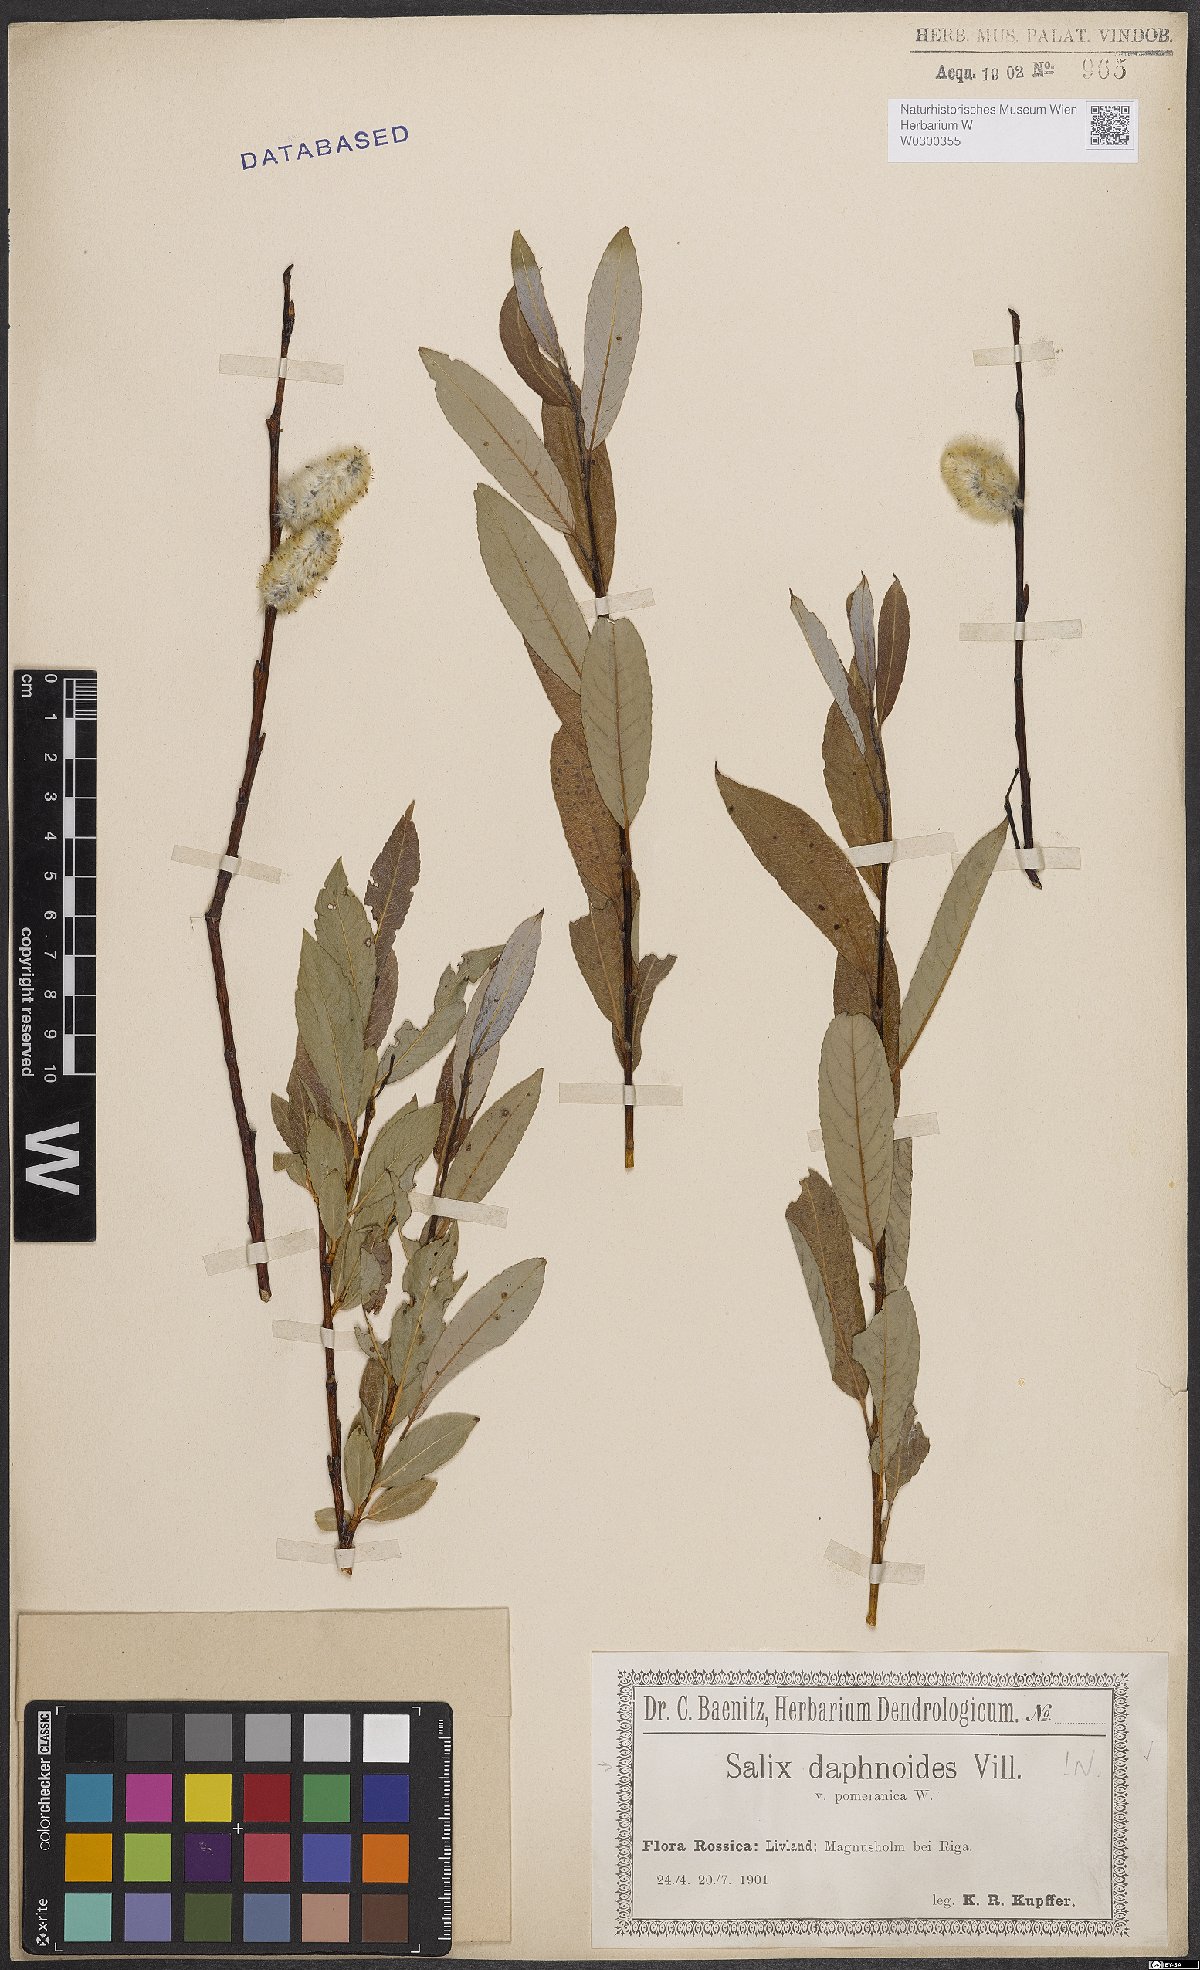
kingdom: Plantae
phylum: Tracheophyta
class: Magnoliopsida
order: Malpighiales
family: Salicaceae
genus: Salix
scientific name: Salix daphnoides
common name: European violet-willow
